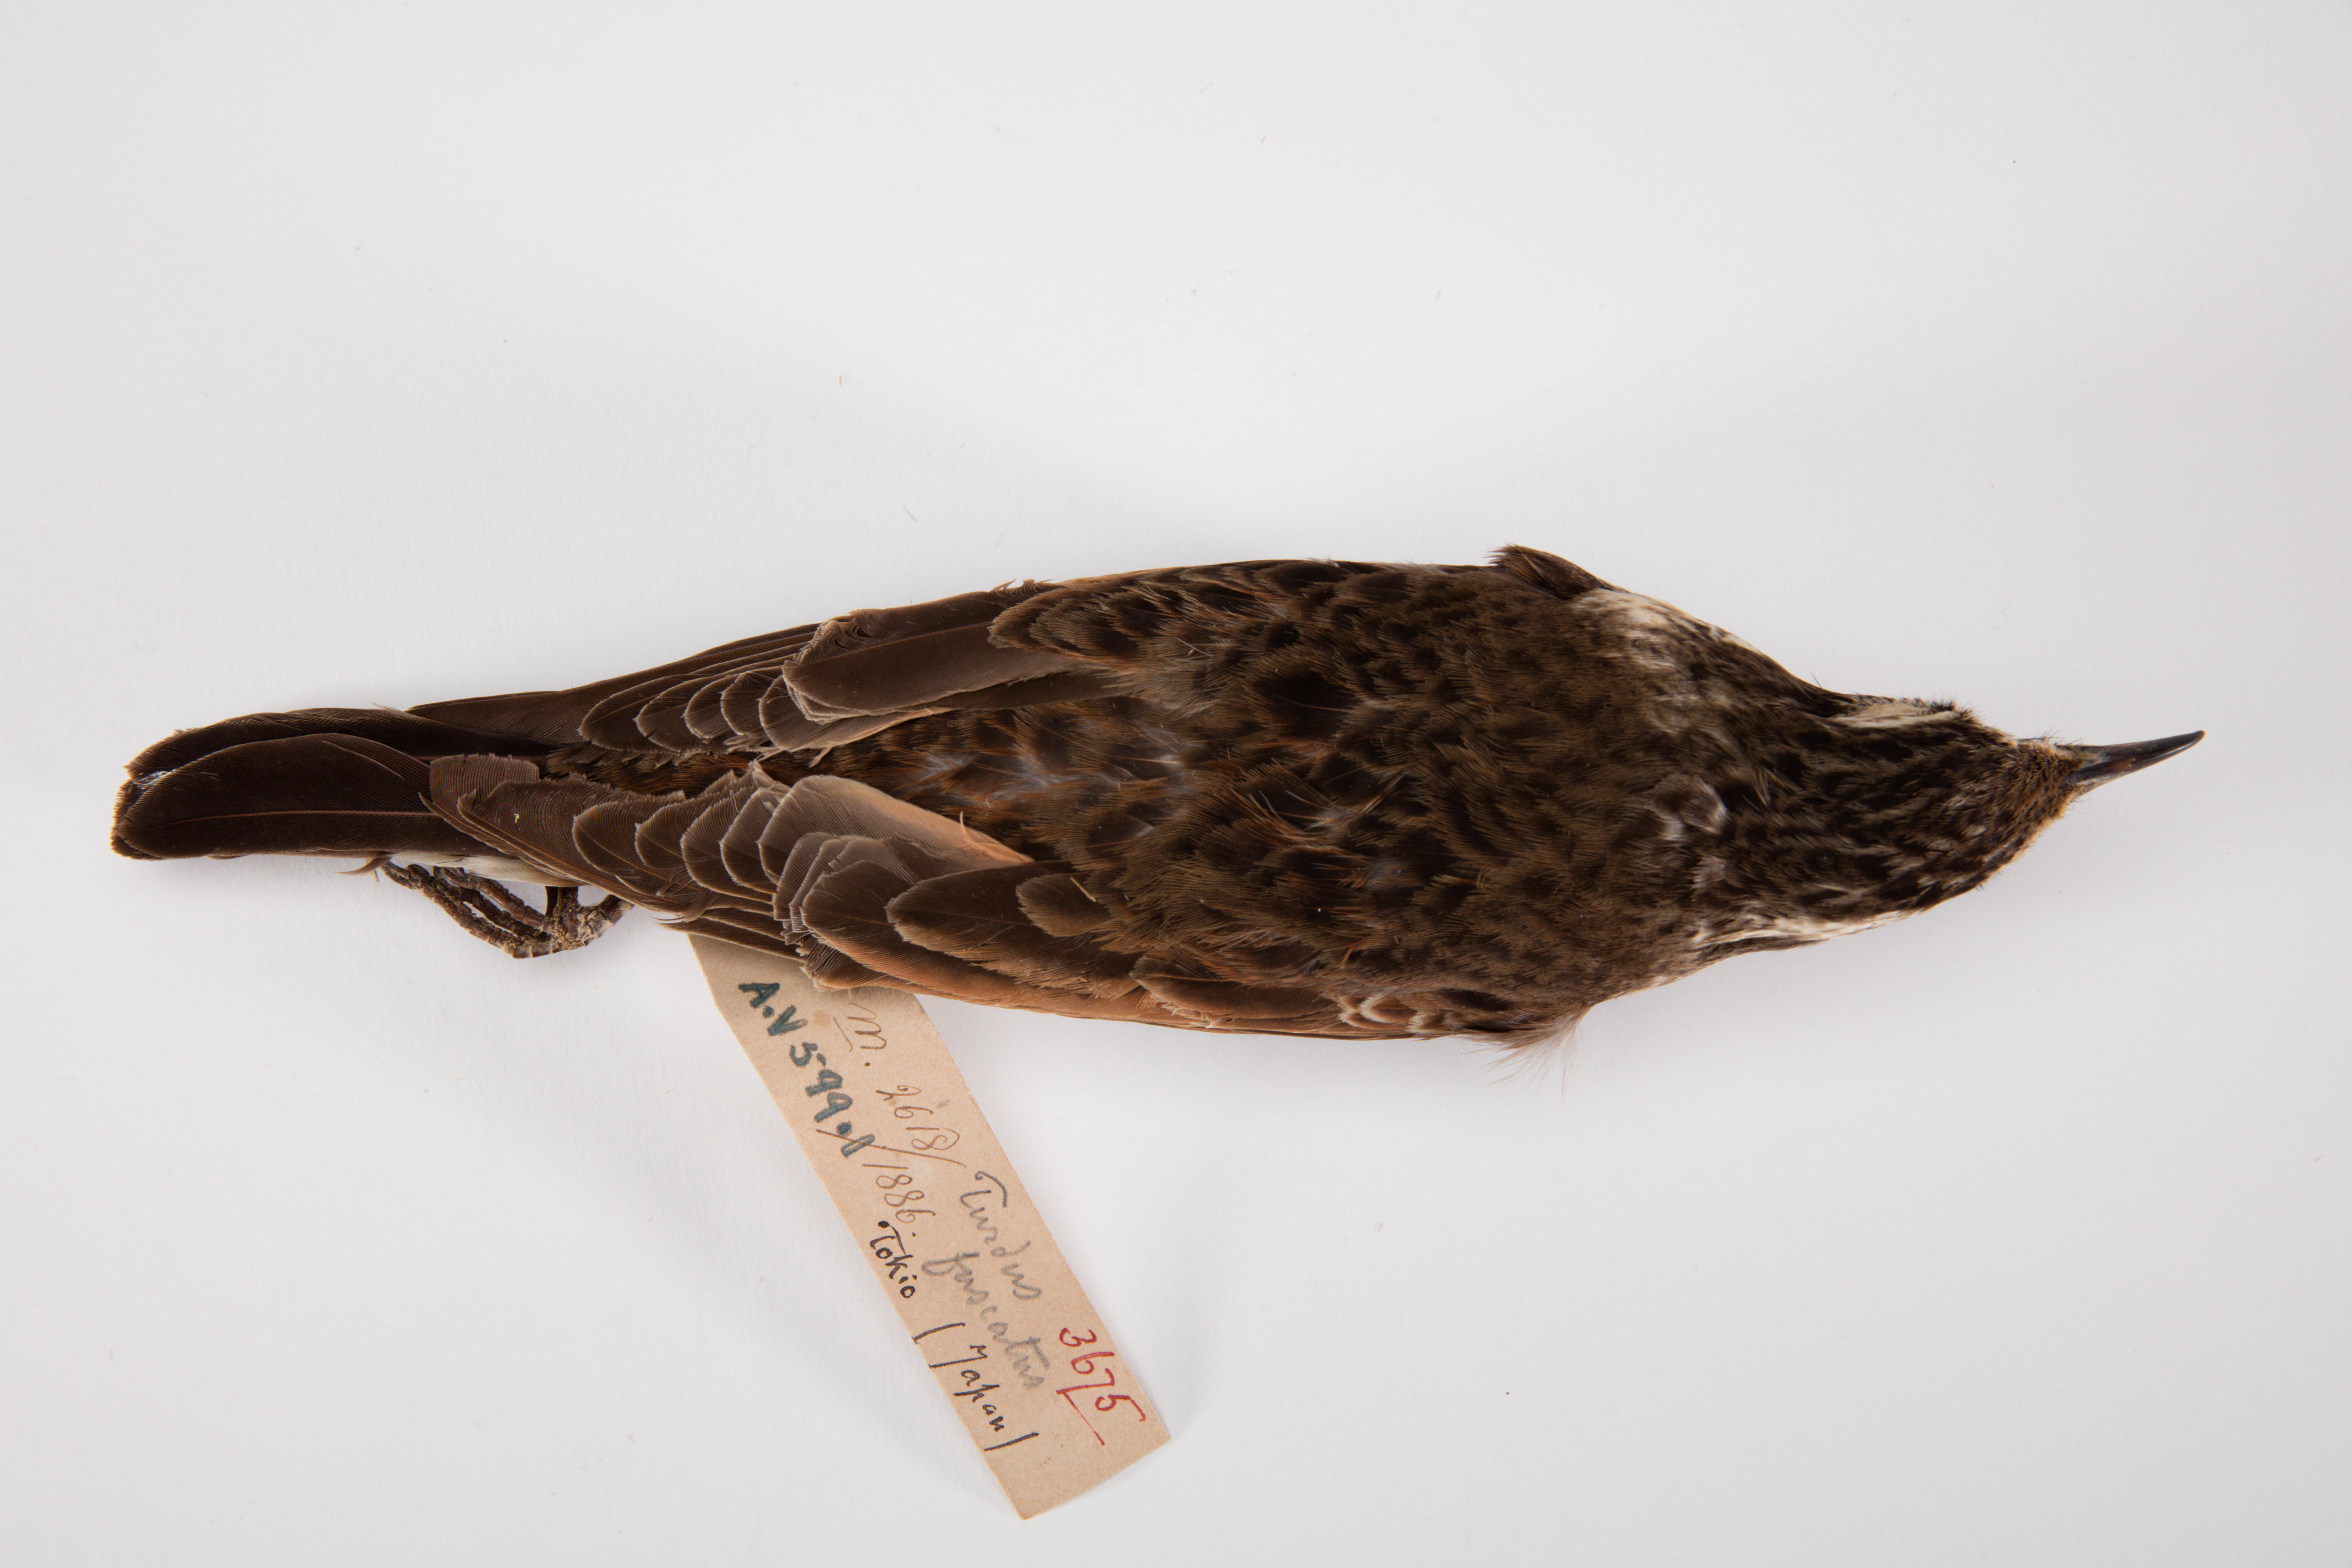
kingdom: Animalia
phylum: Chordata
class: Aves
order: Passeriformes
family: Turdidae
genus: Turdus
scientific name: Turdus naumanni
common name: Naumann's thrush
